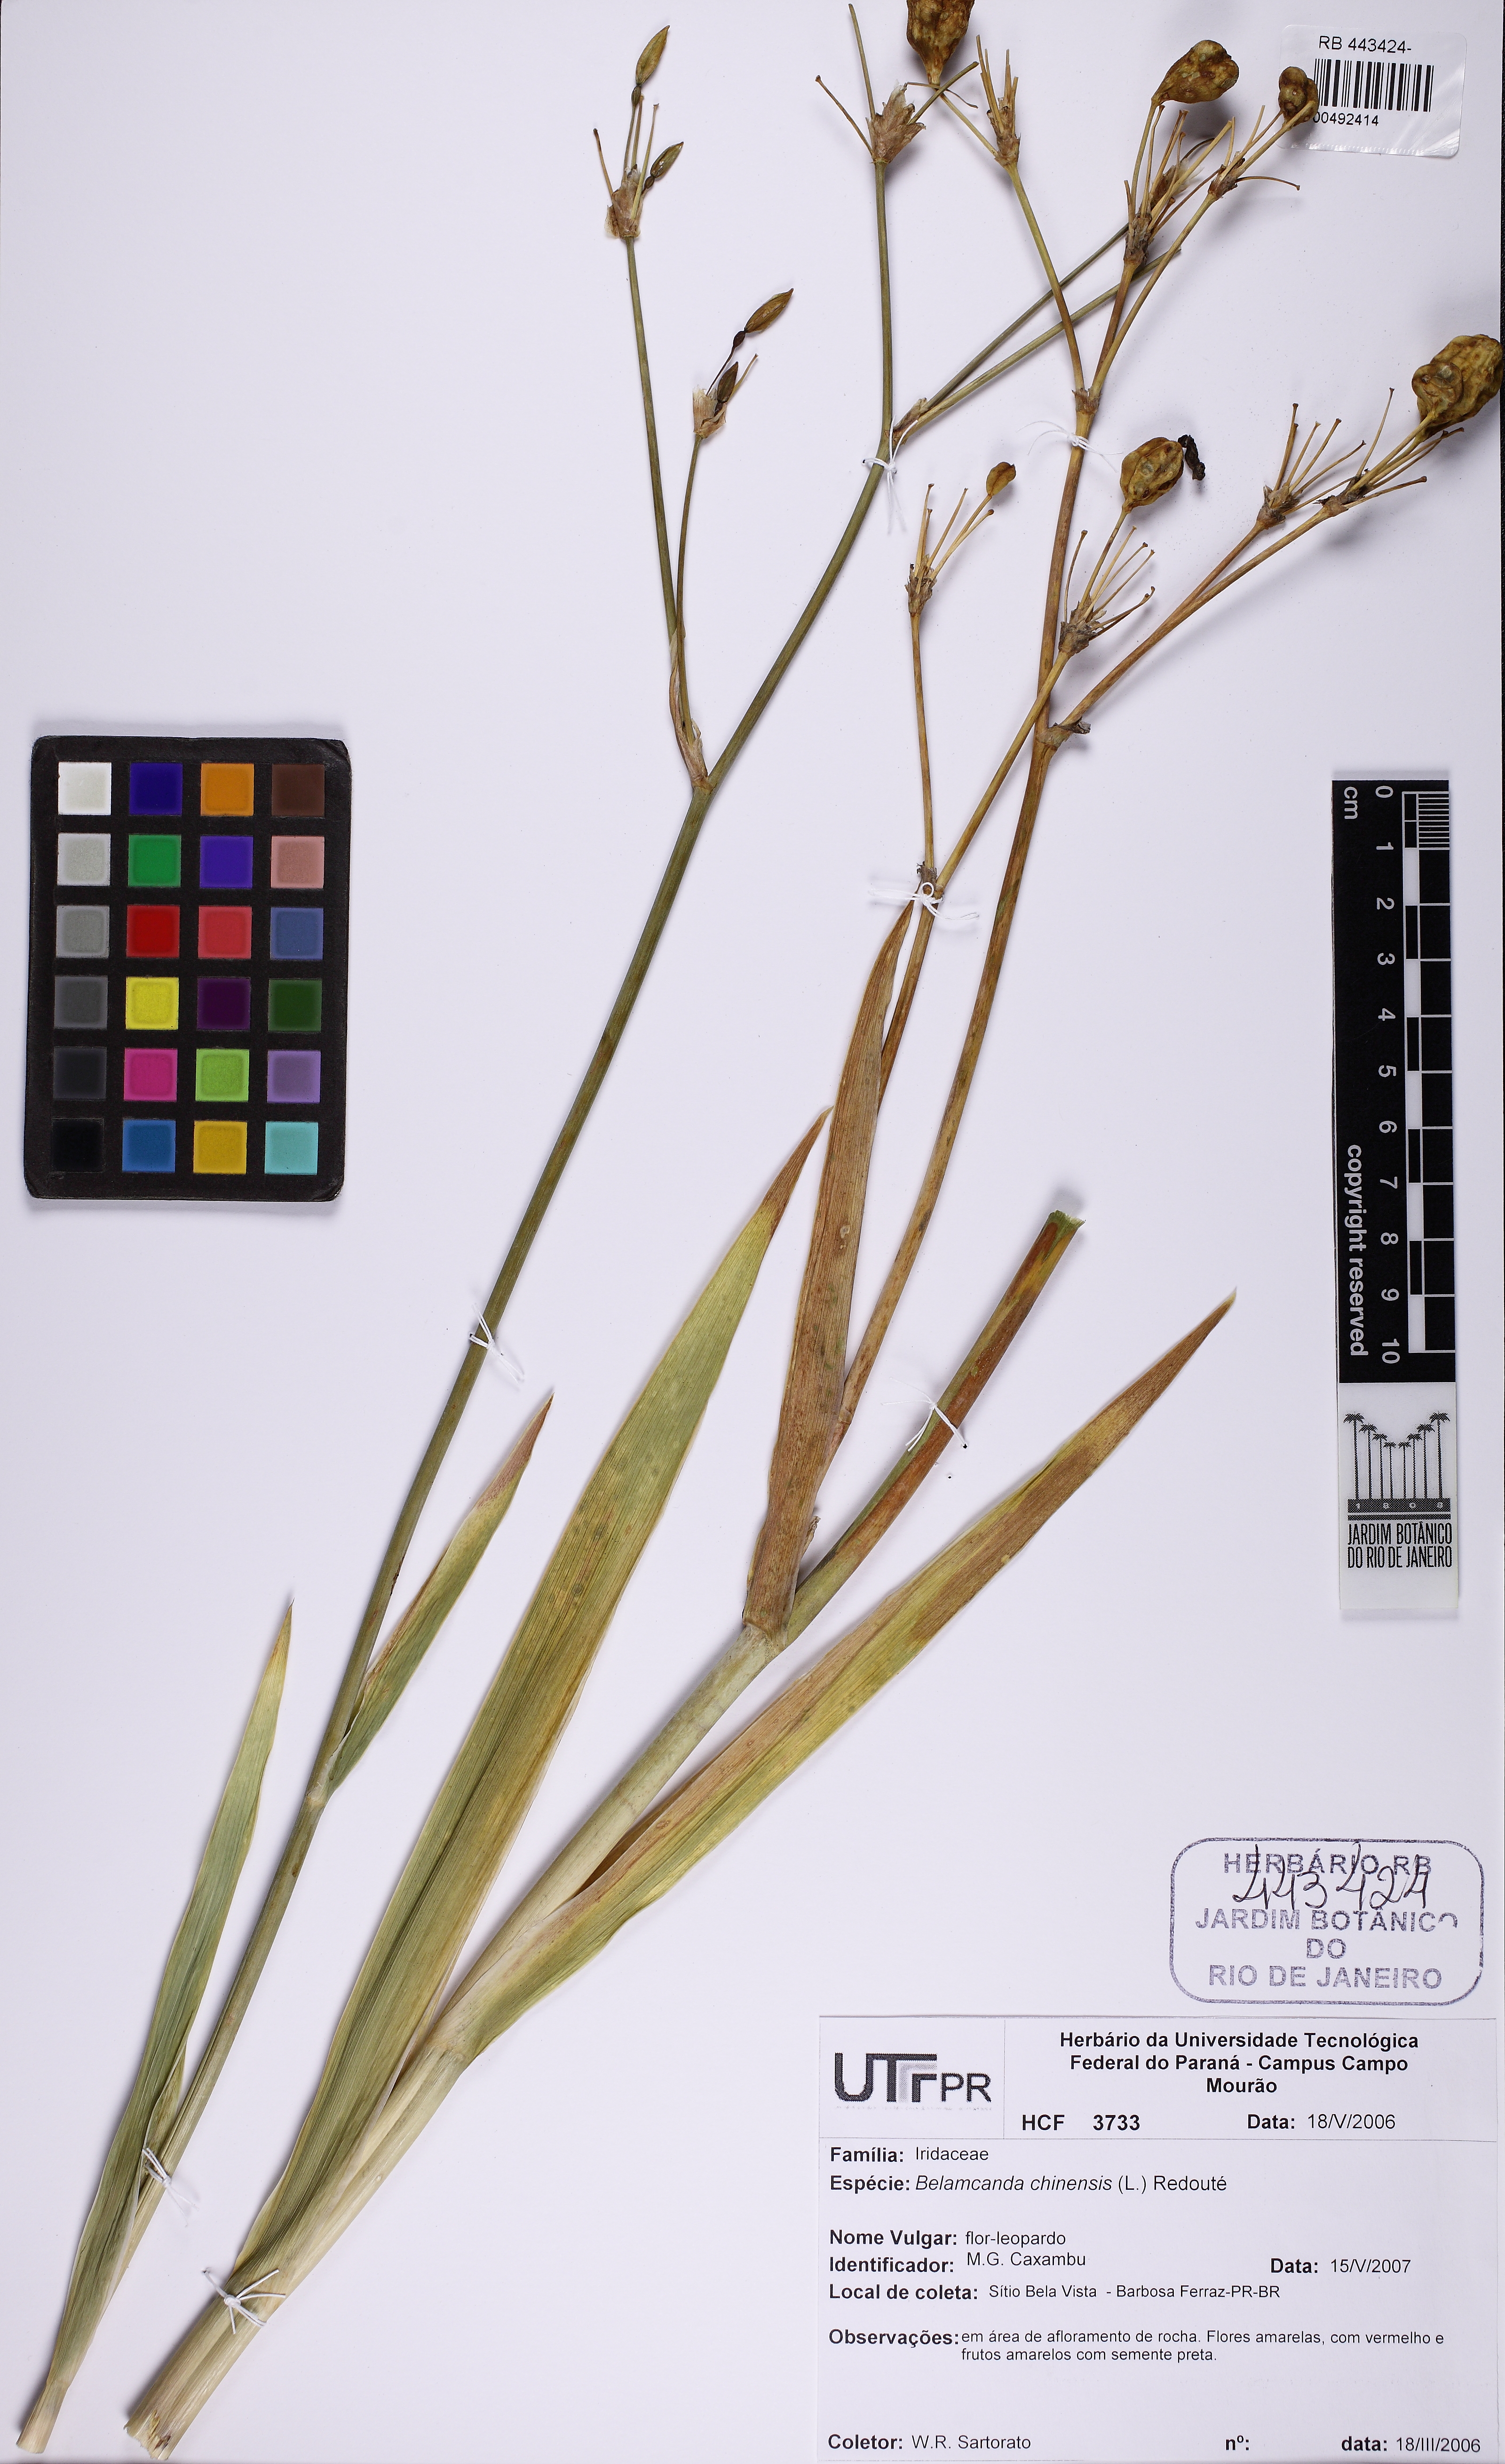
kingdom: Plantae
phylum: Tracheophyta
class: Liliopsida
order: Asparagales
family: Iridaceae
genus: Iris
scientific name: Iris domestica
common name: Belamcanda
